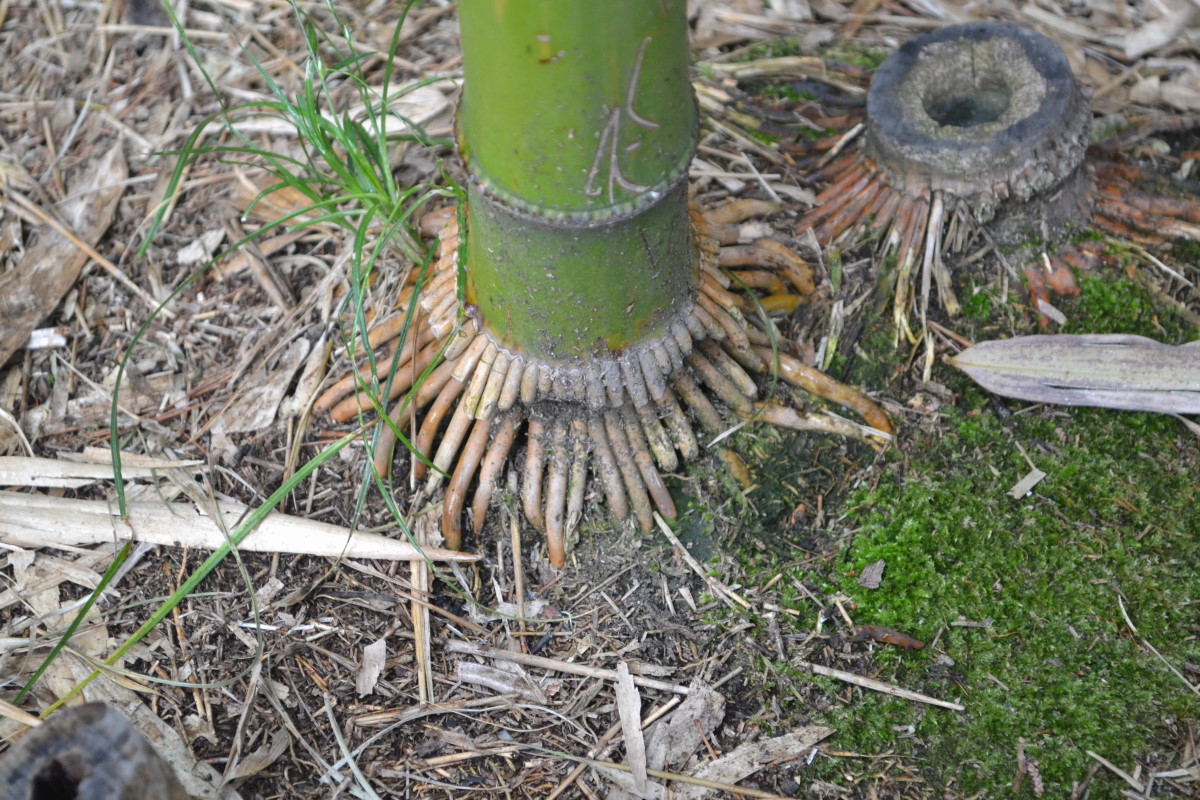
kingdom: Plantae
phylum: Tracheophyta
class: Liliopsida
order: Poales
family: Poaceae
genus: Bambusa
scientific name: Bambusa
